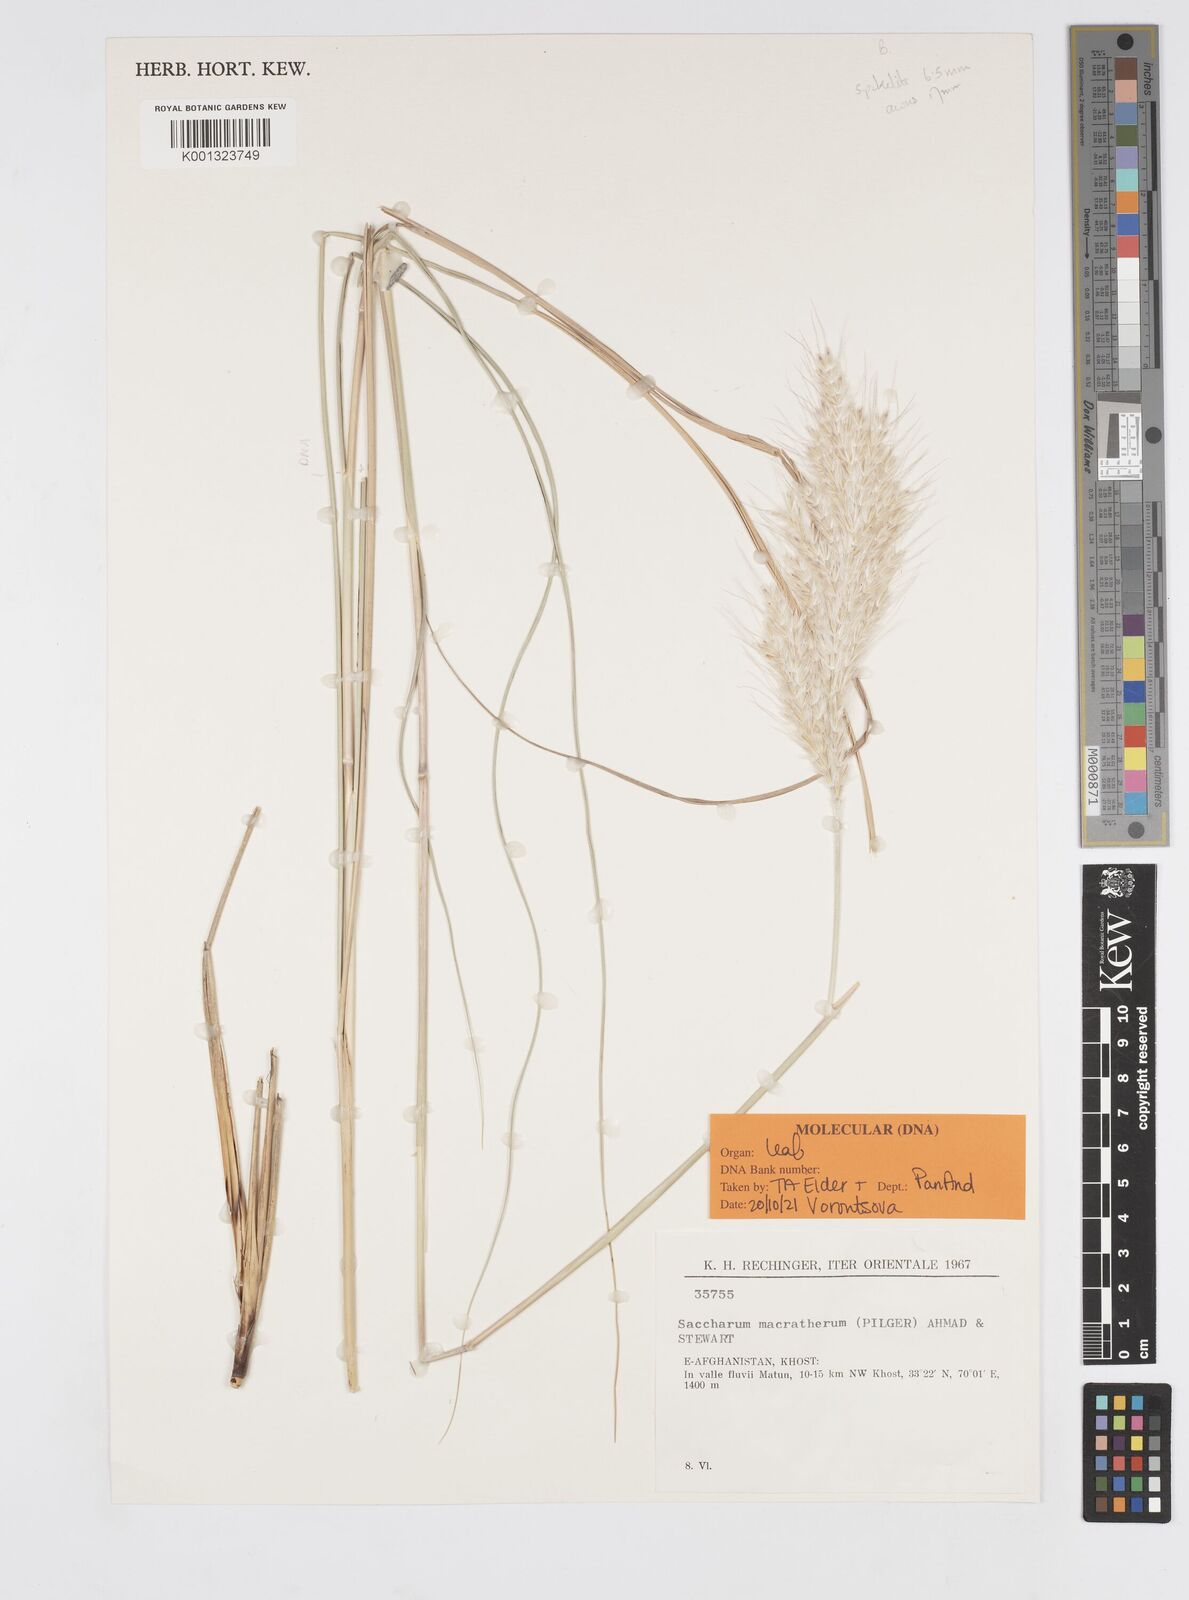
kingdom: Plantae
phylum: Tracheophyta
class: Liliopsida
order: Poales
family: Poaceae
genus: Saccharum
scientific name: Saccharum filifolium
